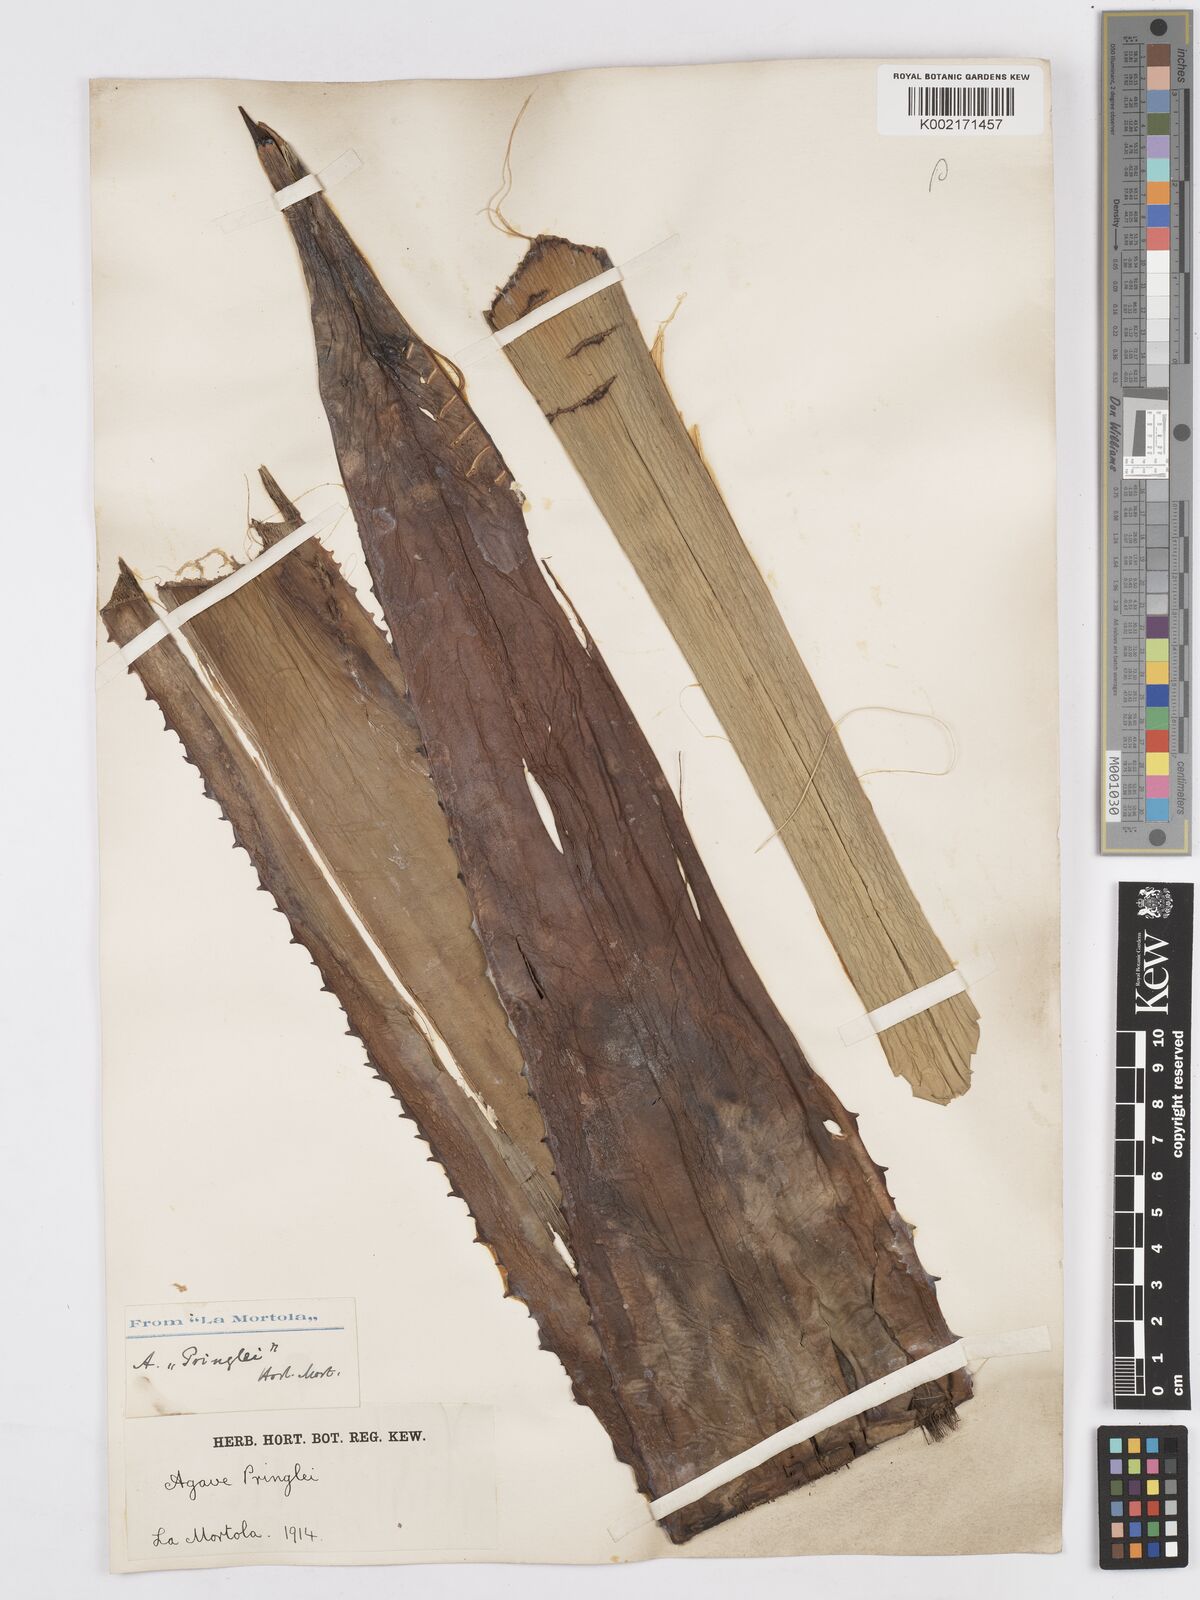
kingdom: Plantae
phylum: Tracheophyta
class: Liliopsida
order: Asparagales
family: Asparagaceae
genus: Agave
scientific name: Agave pringlei
